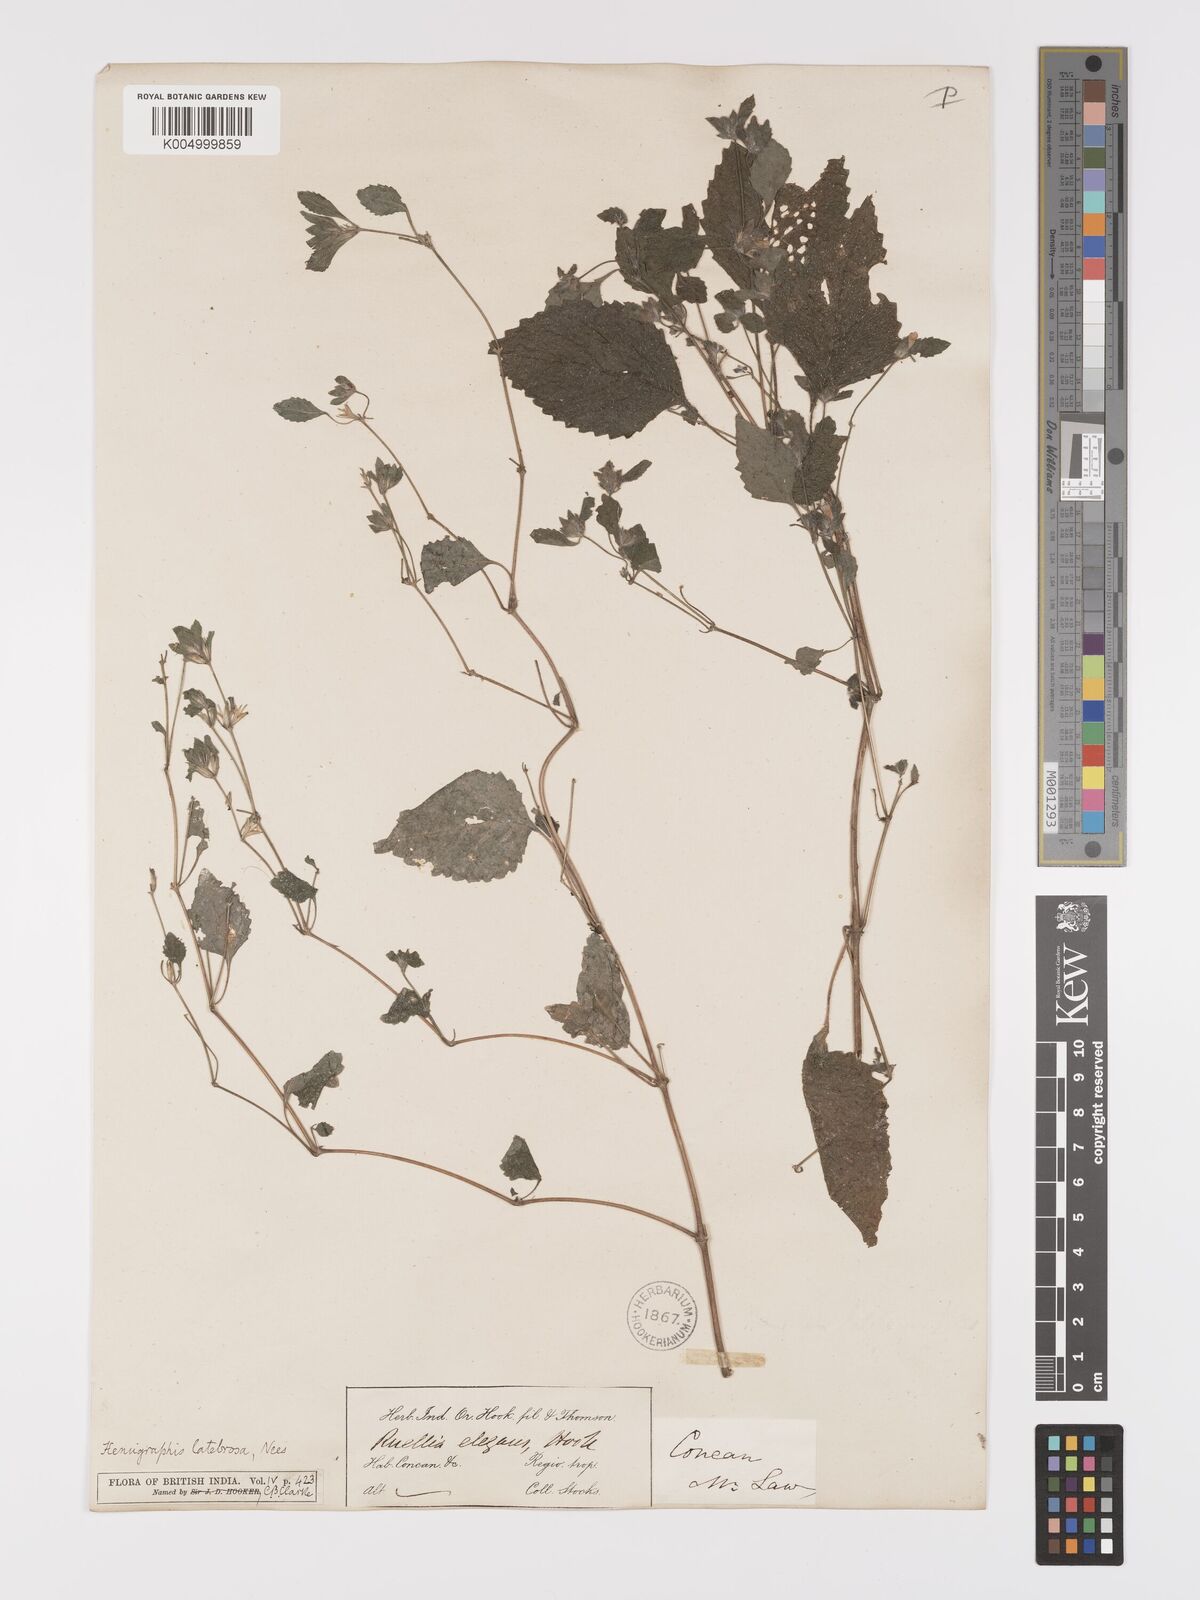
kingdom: Plantae
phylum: Tracheophyta
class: Magnoliopsida
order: Lamiales
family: Acanthaceae
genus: Strobilanthes
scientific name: Strobilanthes pavala
